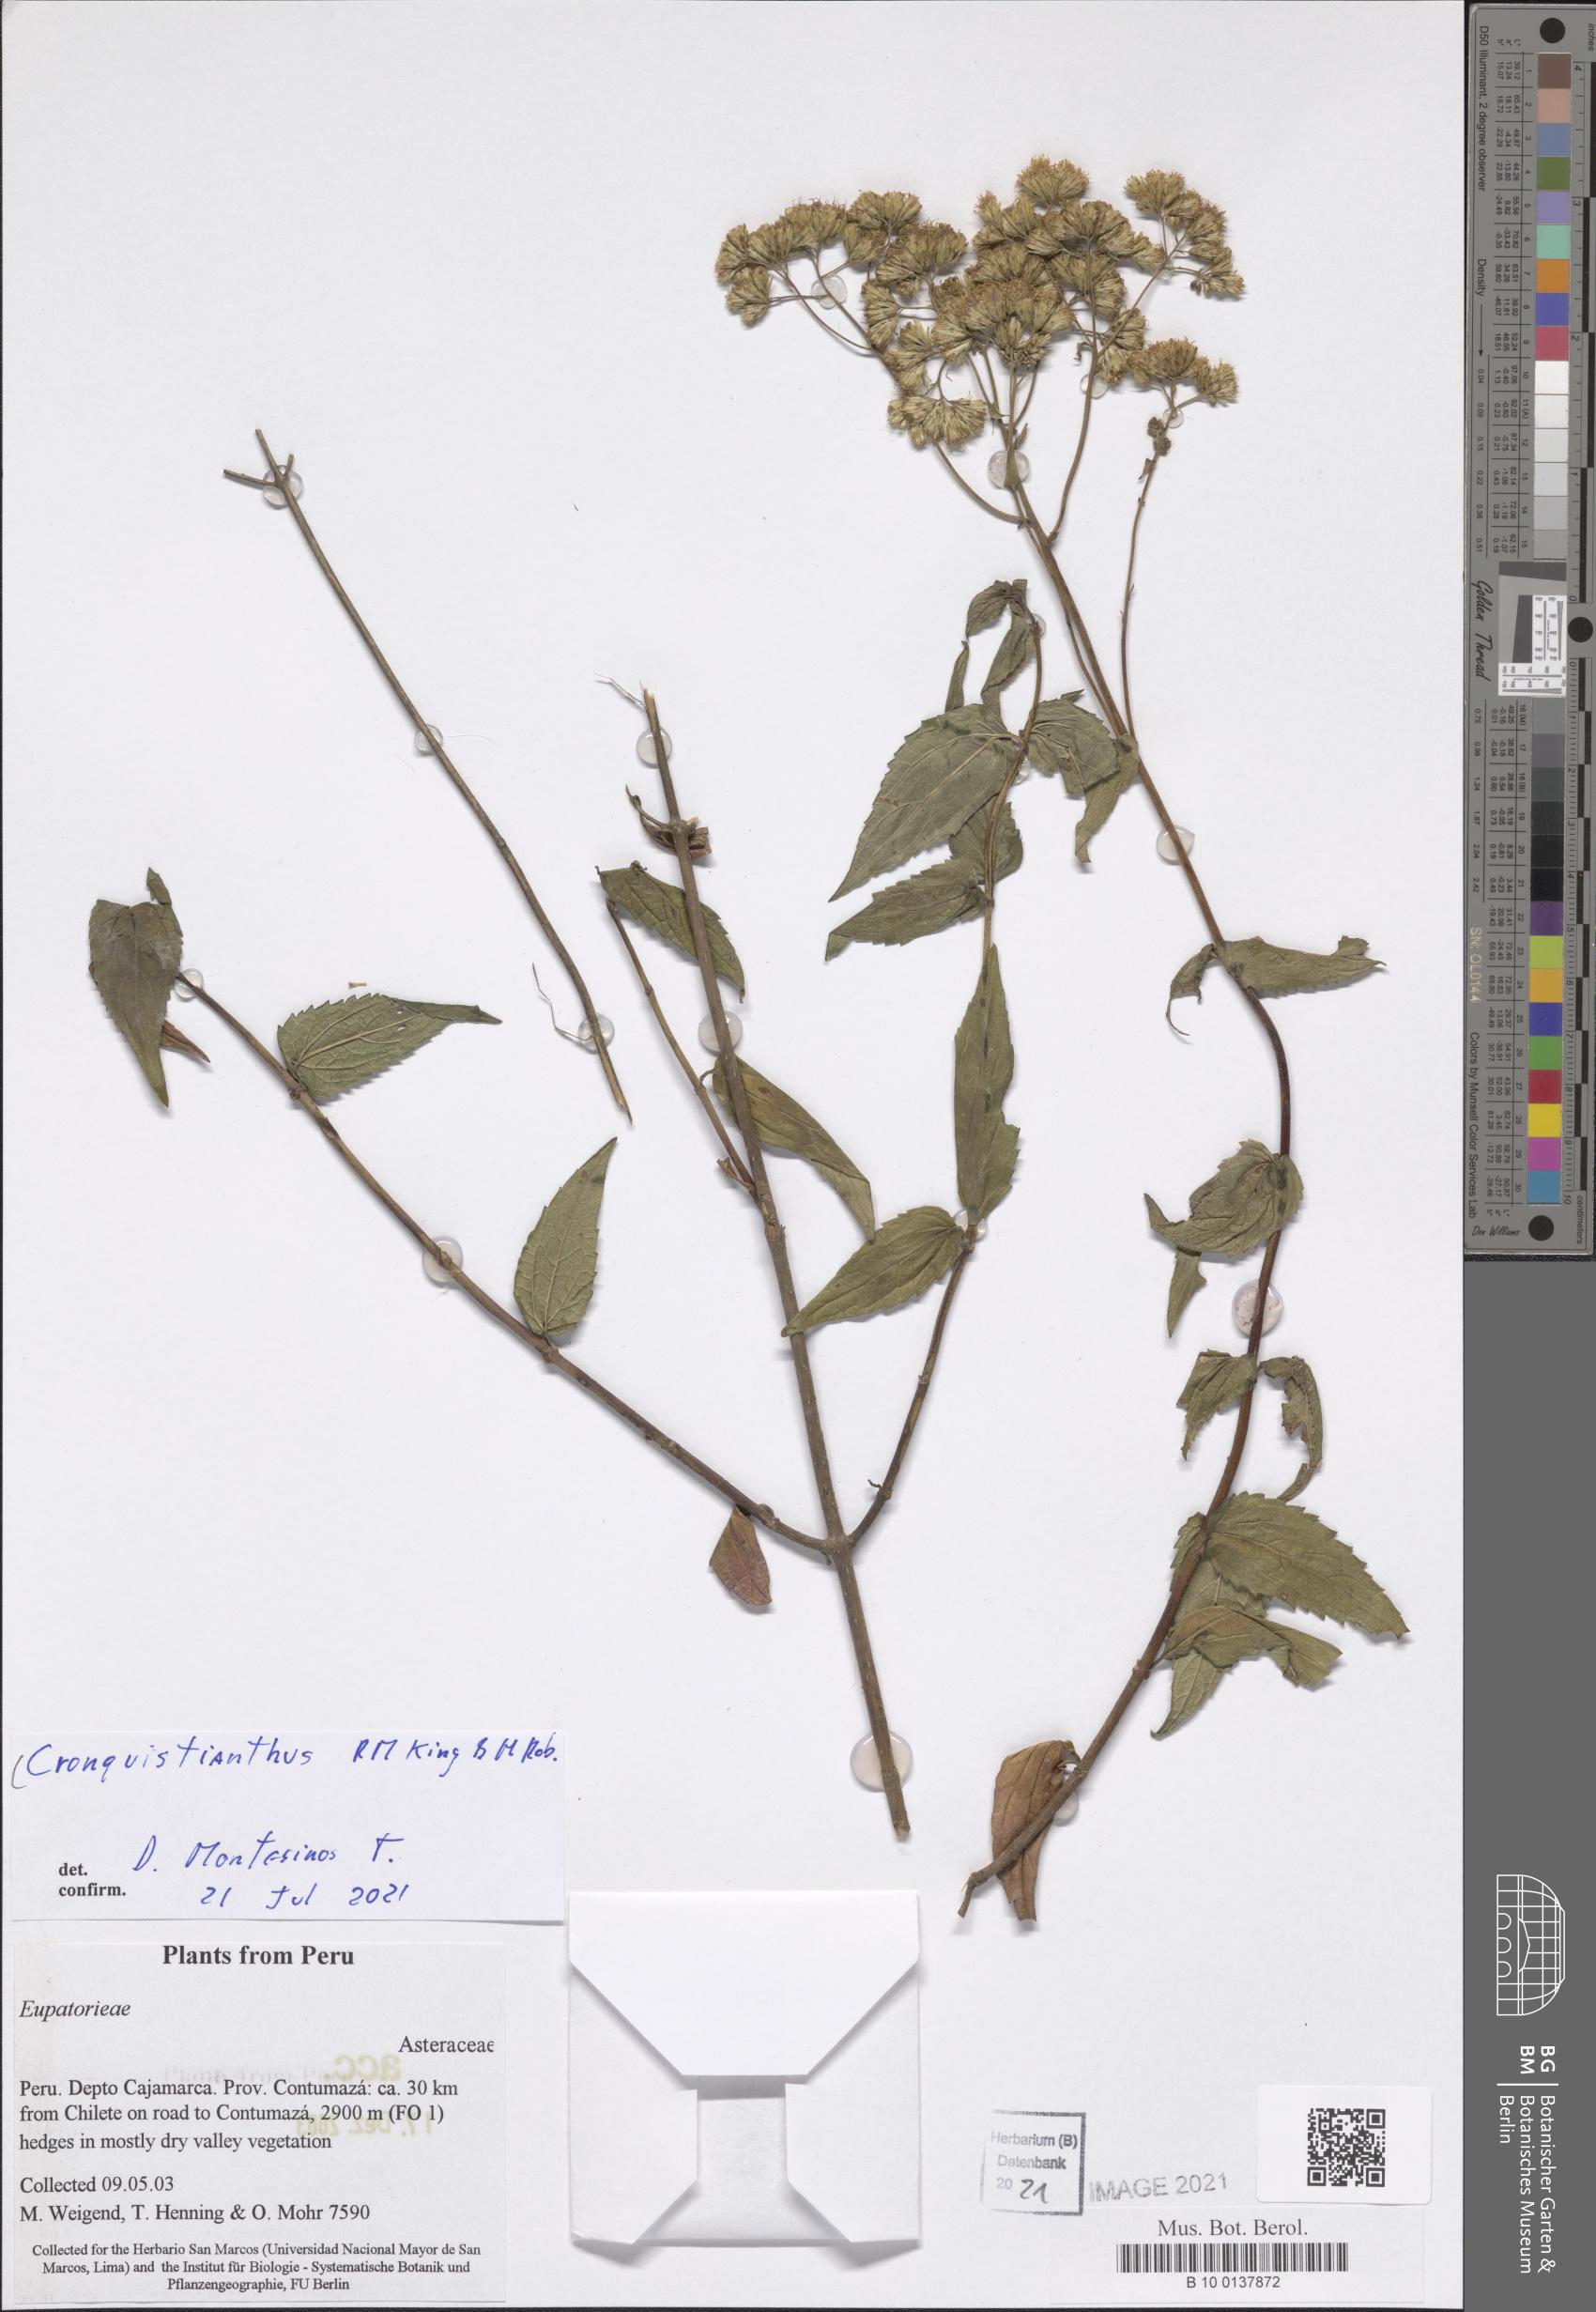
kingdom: Plantae
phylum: Tracheophyta
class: Magnoliopsida
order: Asterales
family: Asteraceae
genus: Cronquistianthus
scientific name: Cronquistianthus
